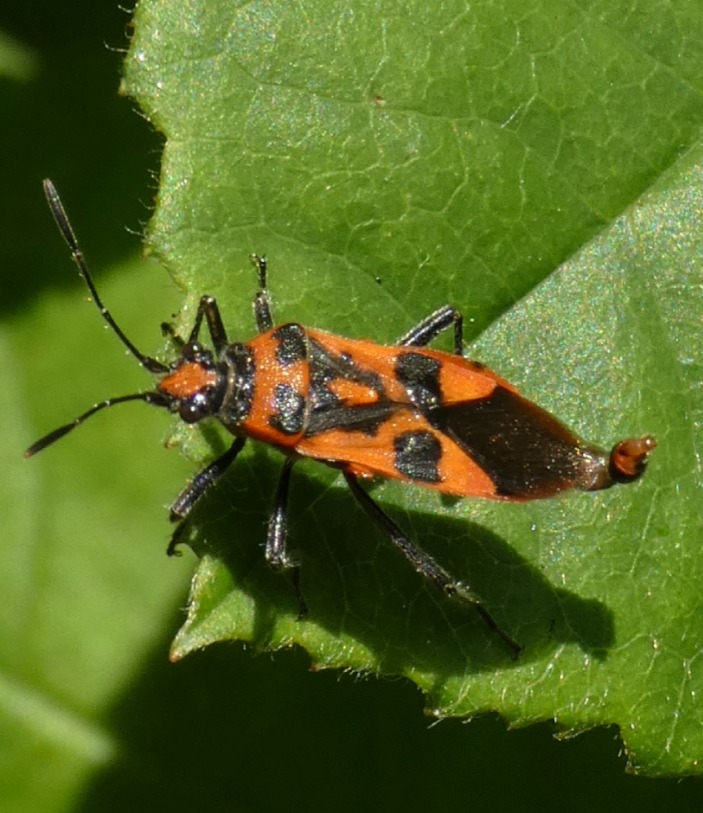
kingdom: Animalia
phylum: Arthropoda
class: Insecta
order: Hemiptera
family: Rhopalidae
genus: Corizus
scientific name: Corizus hyoscyami
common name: Rød kanttæge
